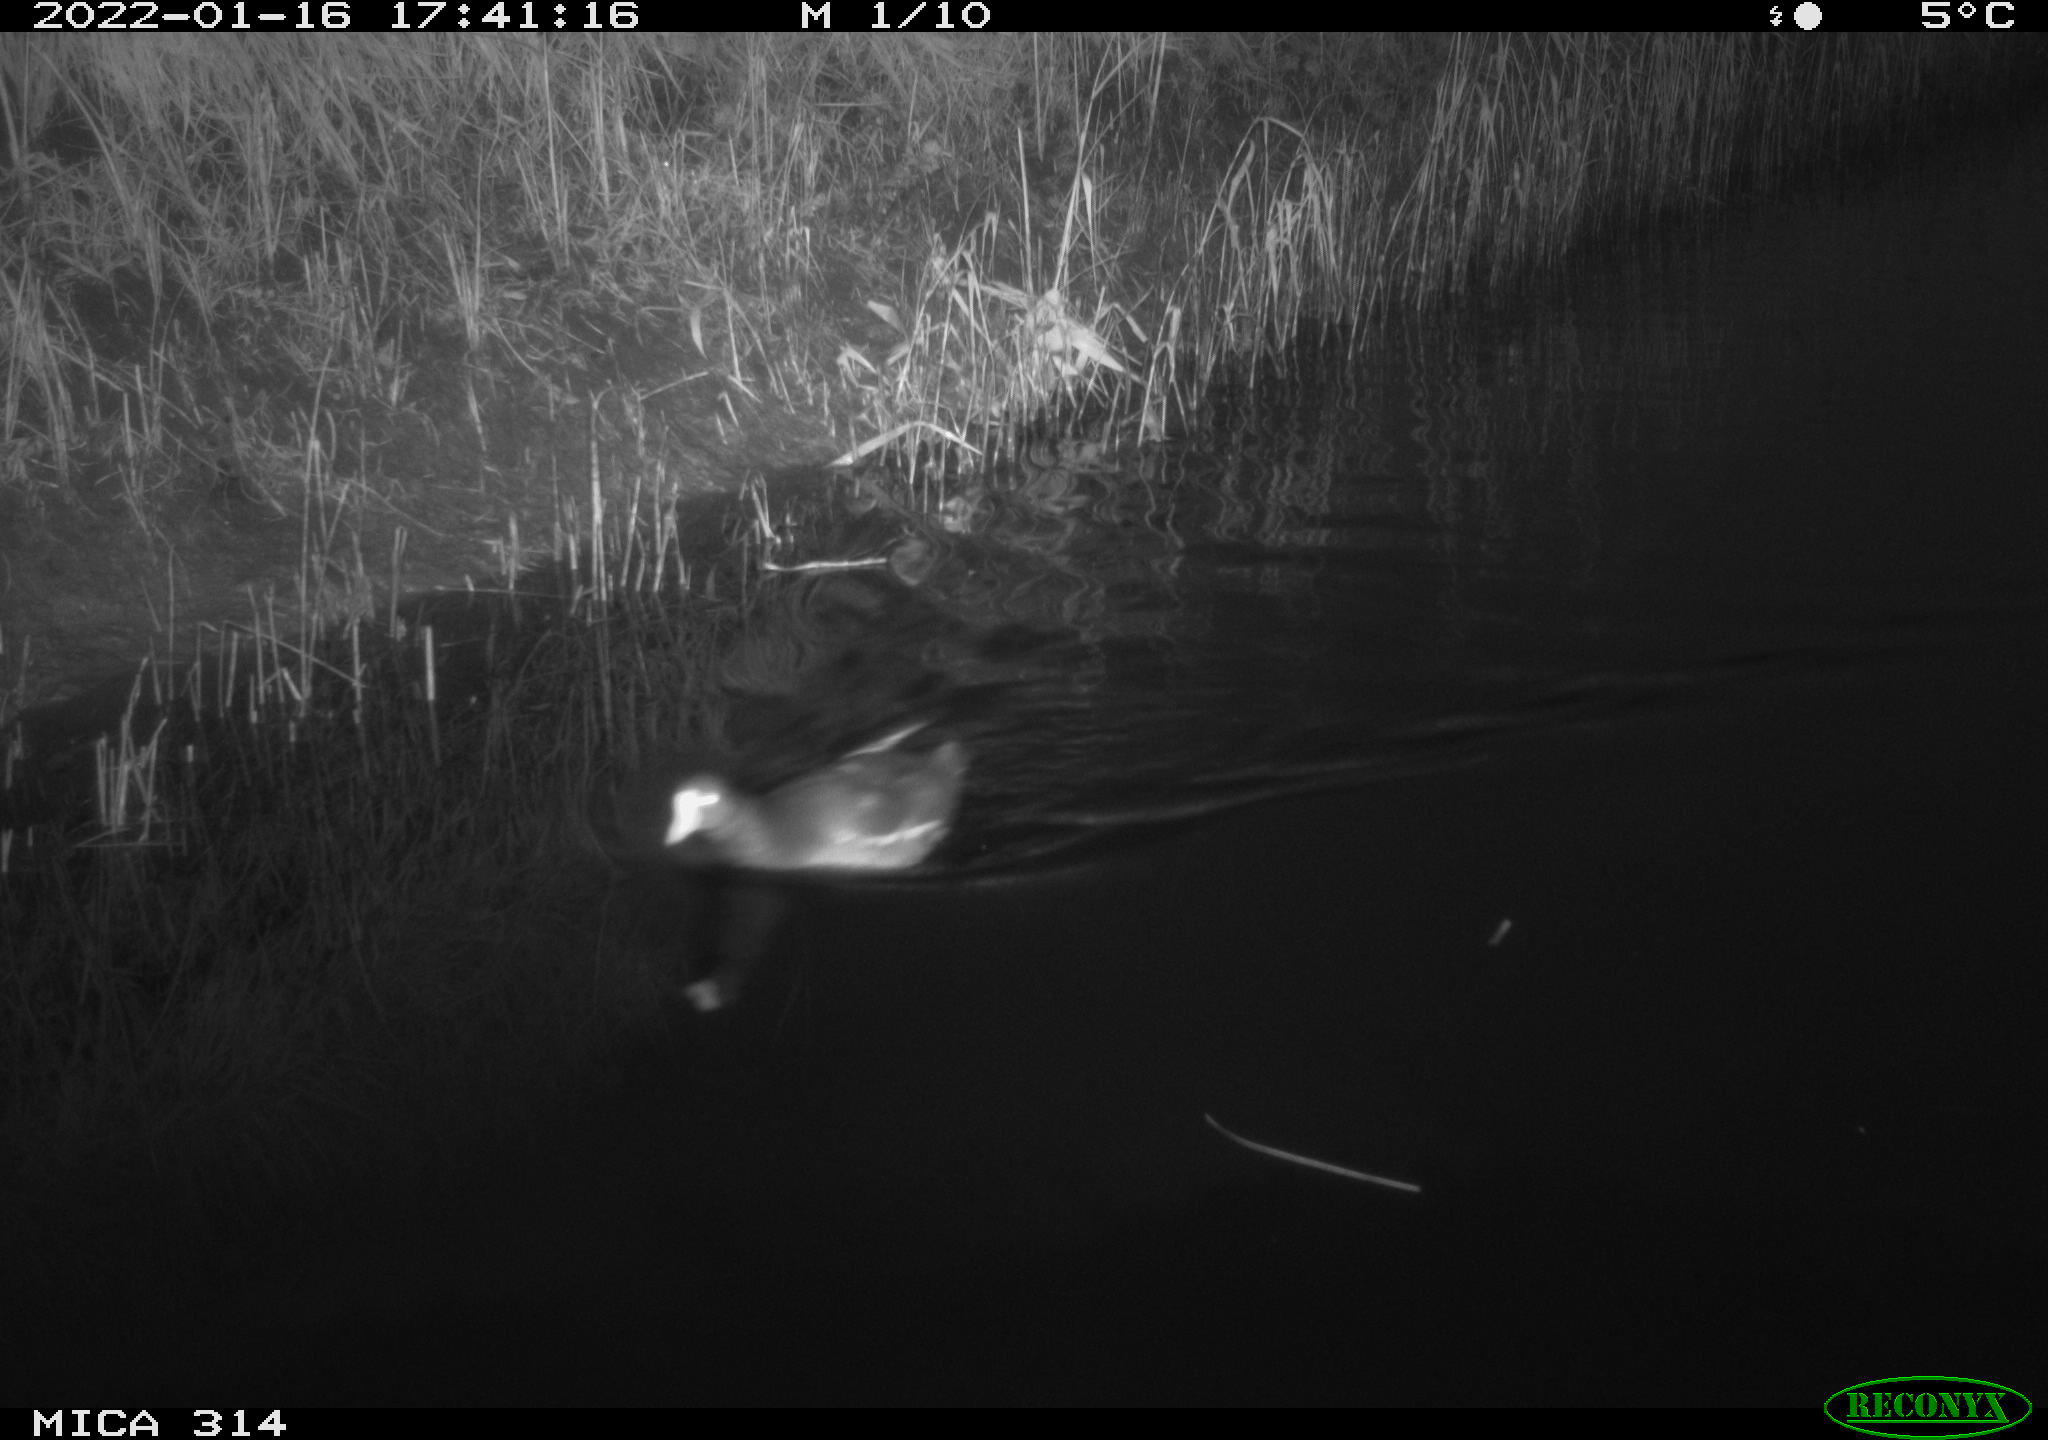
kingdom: Animalia
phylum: Chordata
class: Aves
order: Gruiformes
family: Rallidae
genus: Gallinula
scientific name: Gallinula chloropus
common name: Common moorhen
